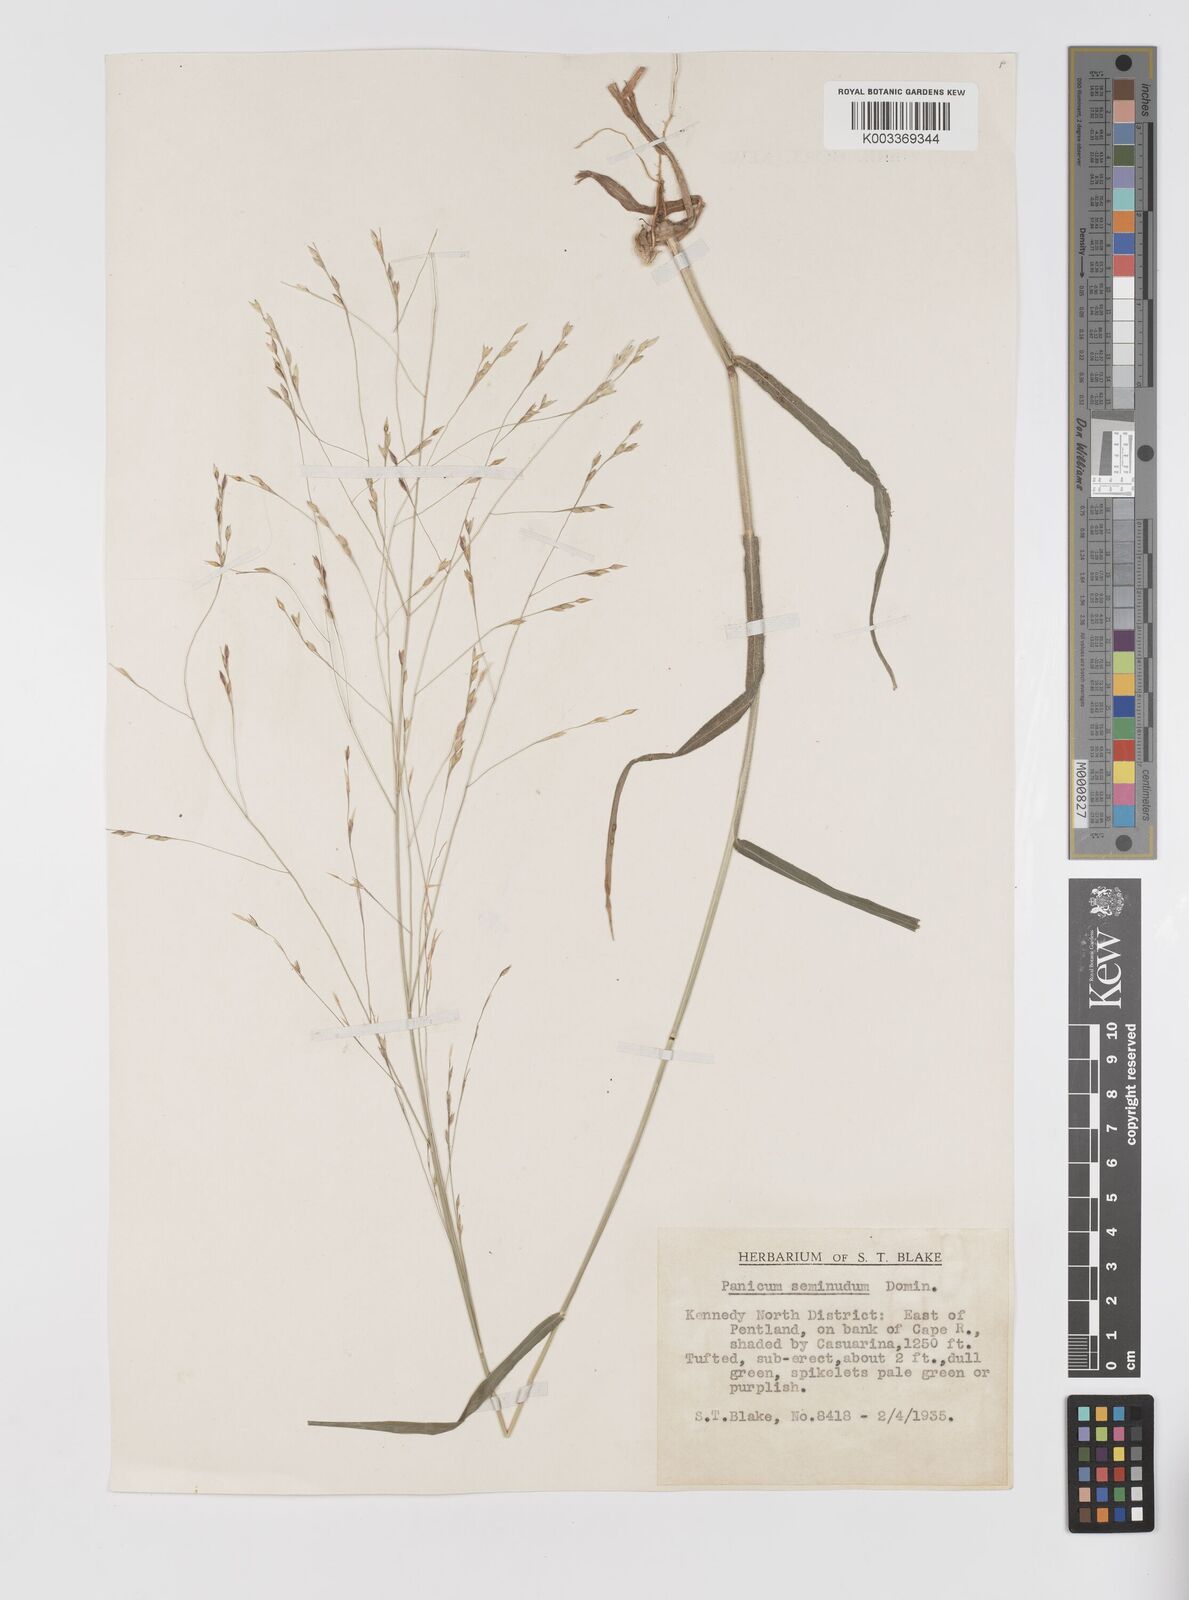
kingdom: Plantae
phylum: Tracheophyta
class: Liliopsida
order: Poales
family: Poaceae
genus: Panicum
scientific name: Panicum seminudum
